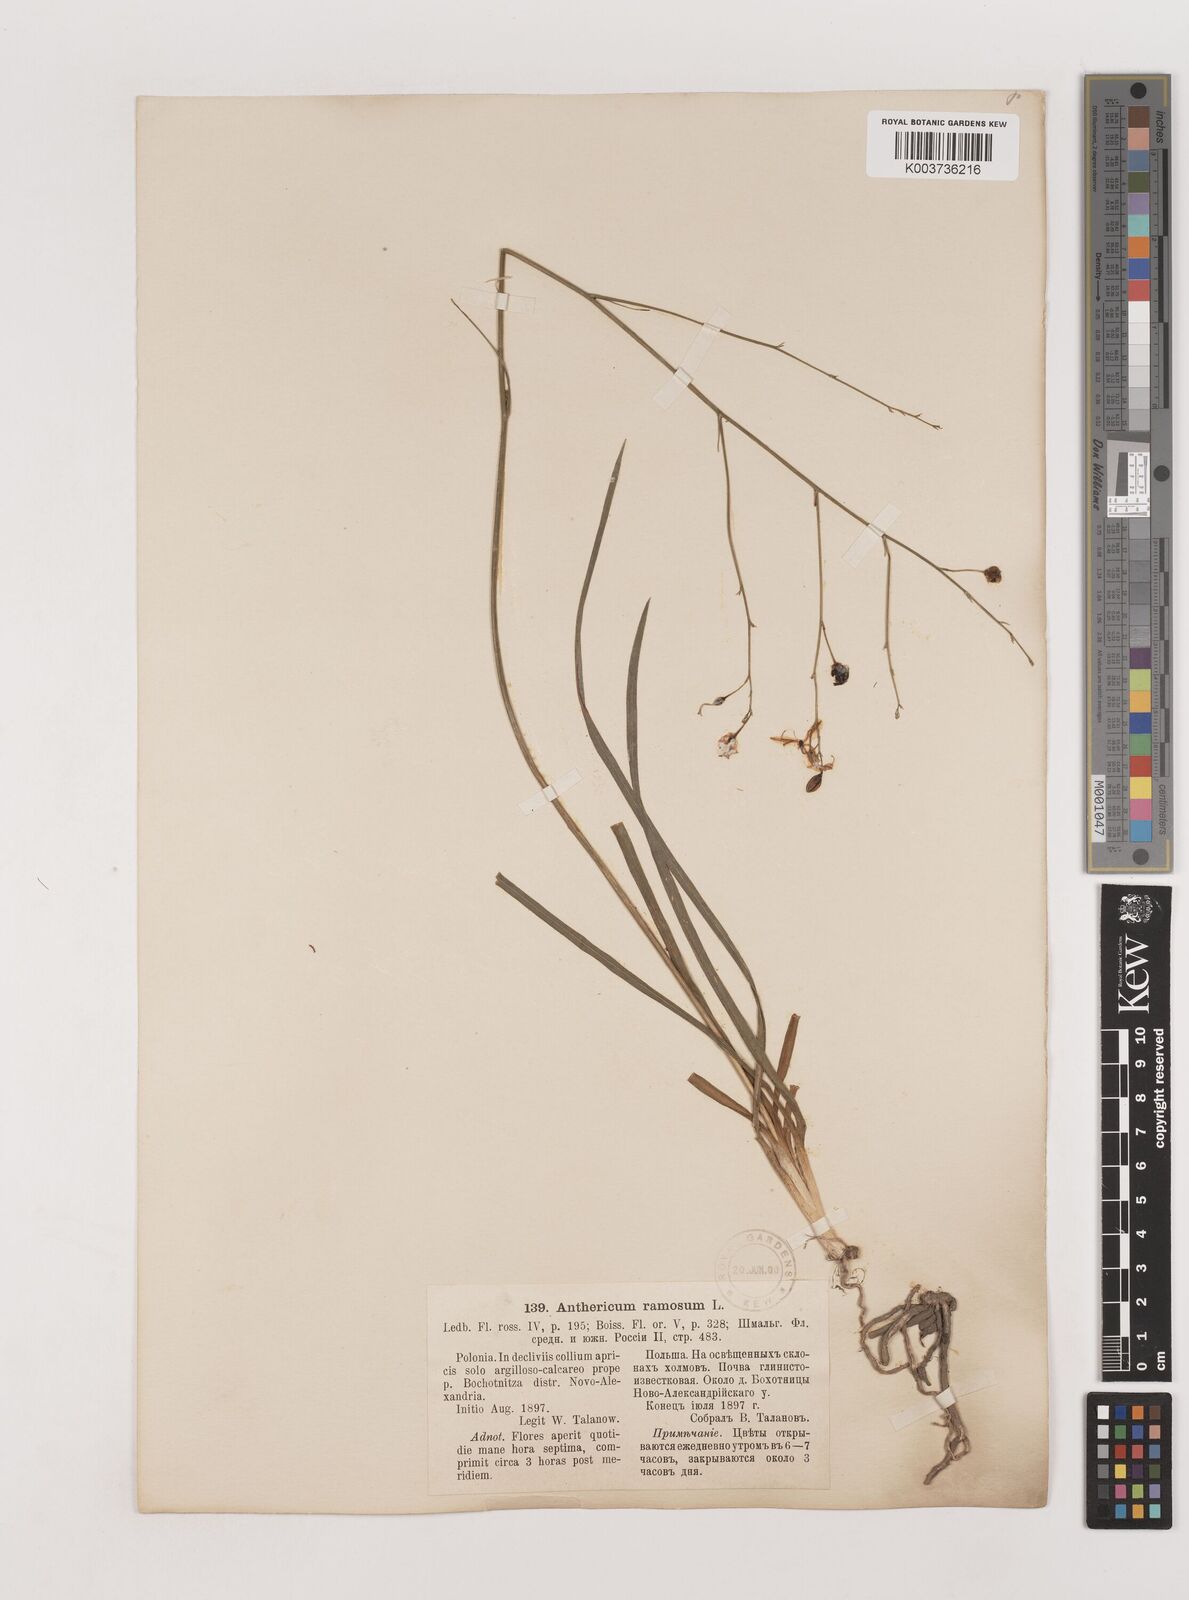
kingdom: Plantae
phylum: Tracheophyta
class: Liliopsida
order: Asparagales
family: Asparagaceae
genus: Anthericum
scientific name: Anthericum
